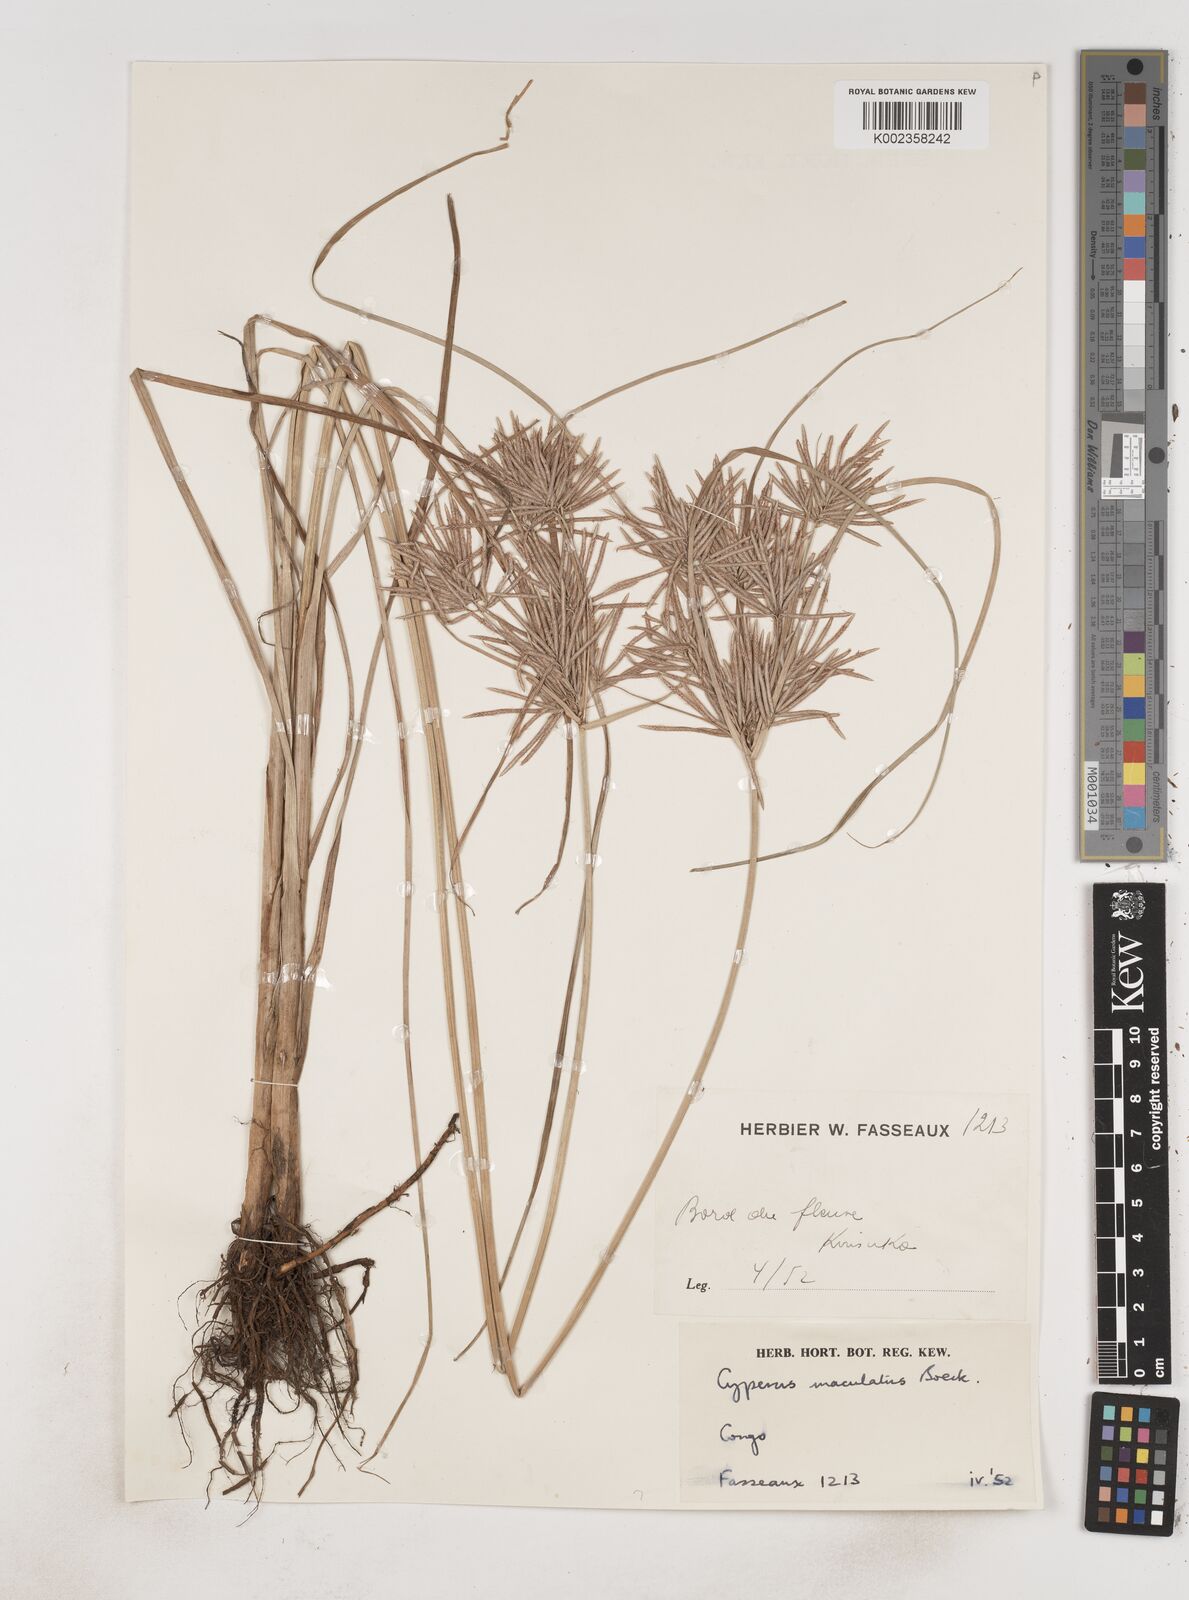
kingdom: Plantae
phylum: Tracheophyta
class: Liliopsida
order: Poales
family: Cyperaceae
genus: Cyperus
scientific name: Cyperus maculatus
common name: Maculated sedge
